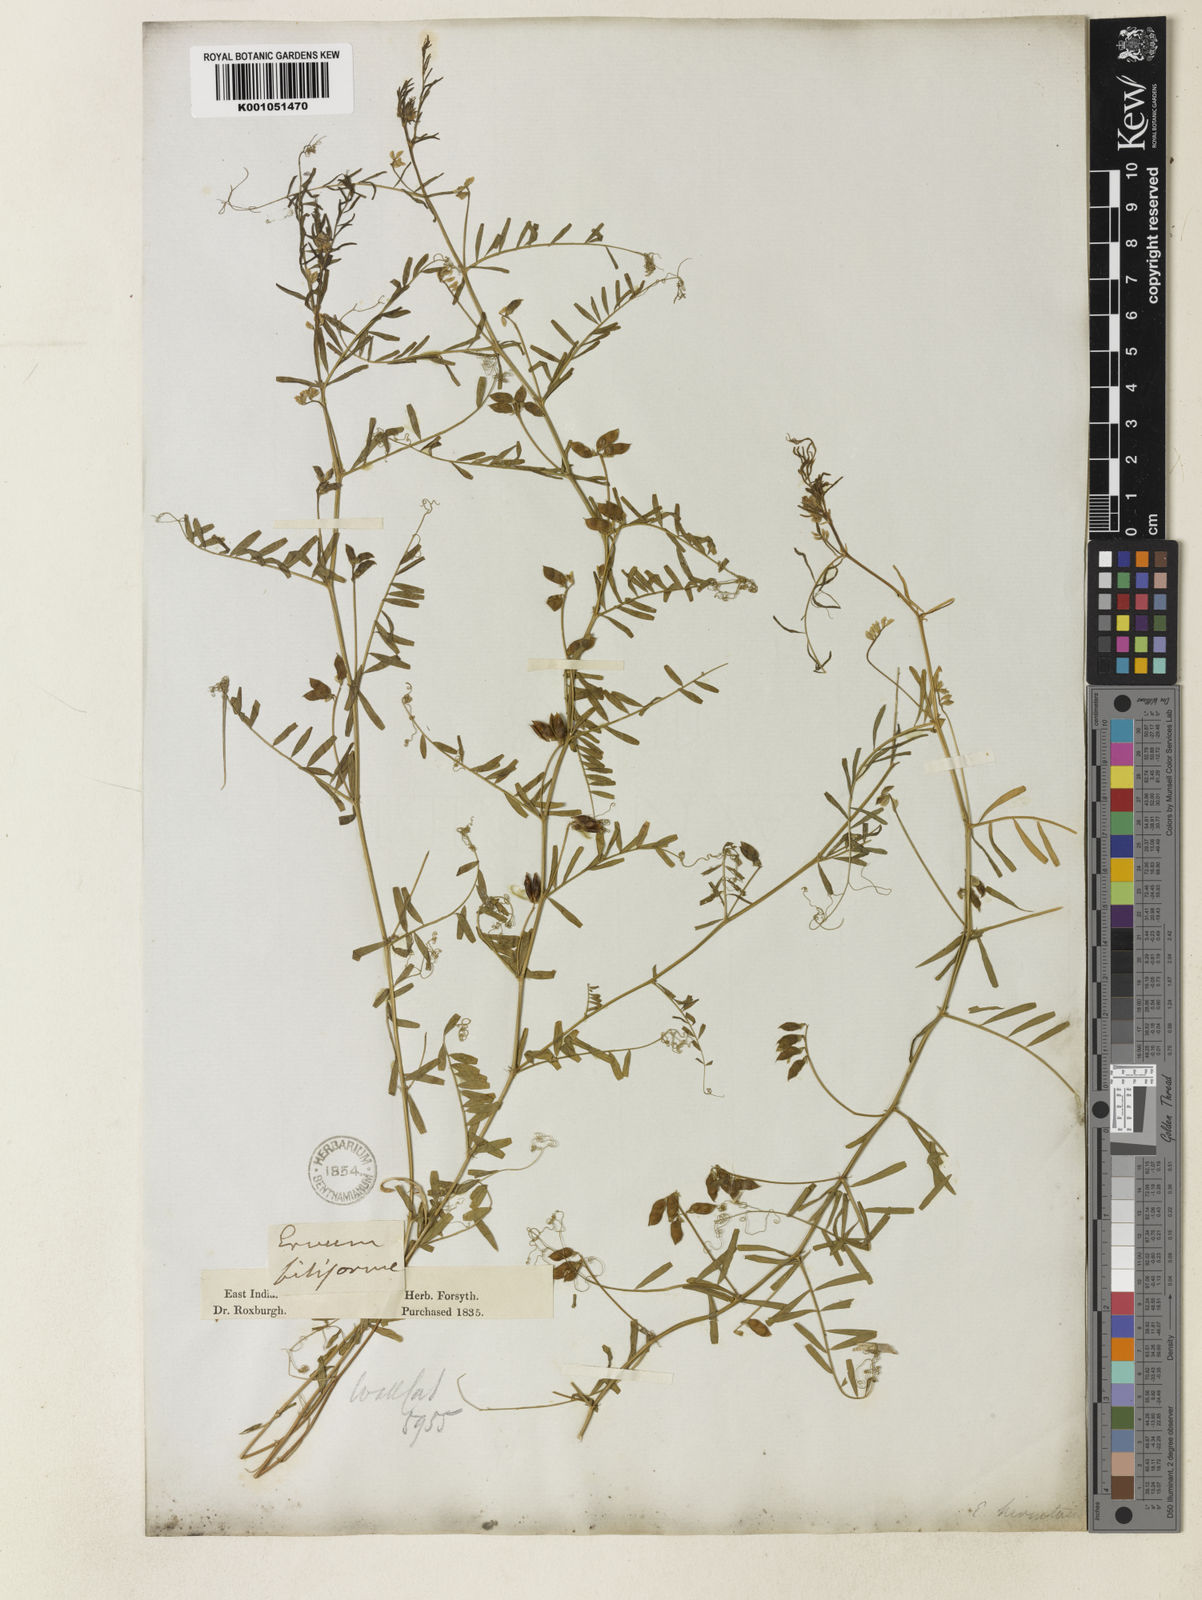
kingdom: Plantae
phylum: Tracheophyta
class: Magnoliopsida
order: Fabales
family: Fabaceae
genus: Vicia
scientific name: Vicia hirsuta
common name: Tiny vetch
